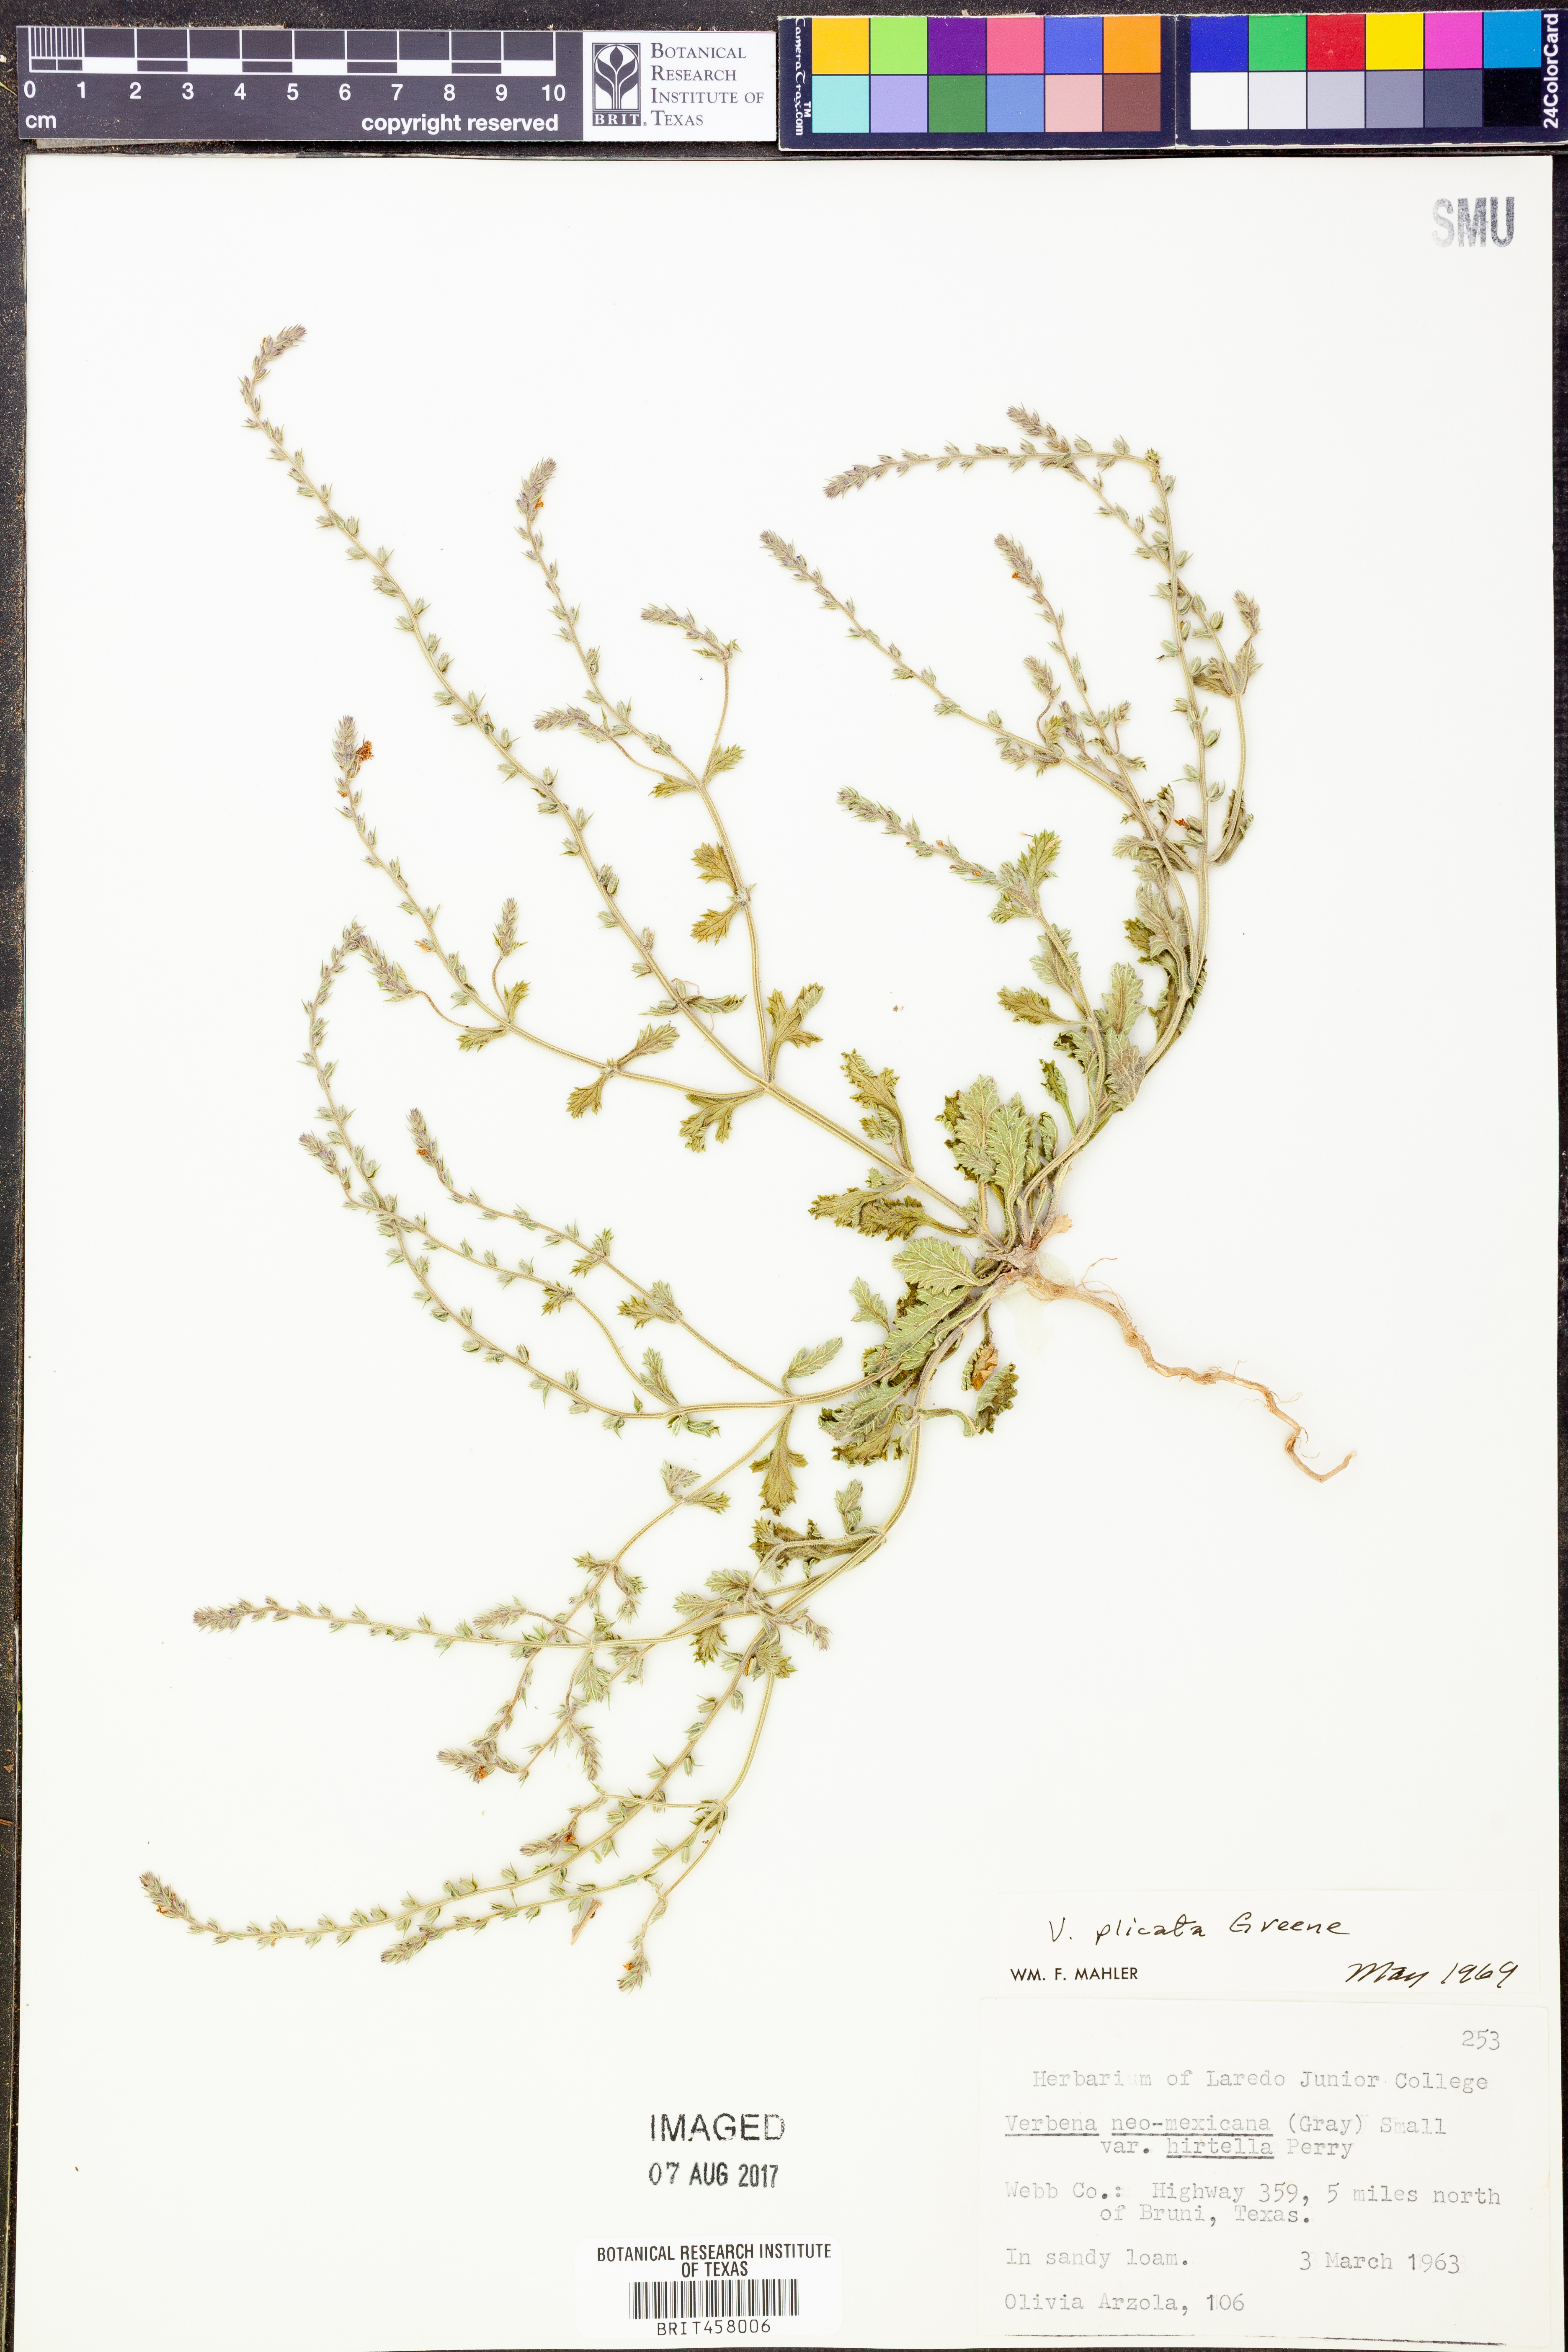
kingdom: Plantae
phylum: Tracheophyta
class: Magnoliopsida
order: Lamiales
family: Verbenaceae
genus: Verbena
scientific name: Verbena plicata
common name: Fan-leaf vervain
